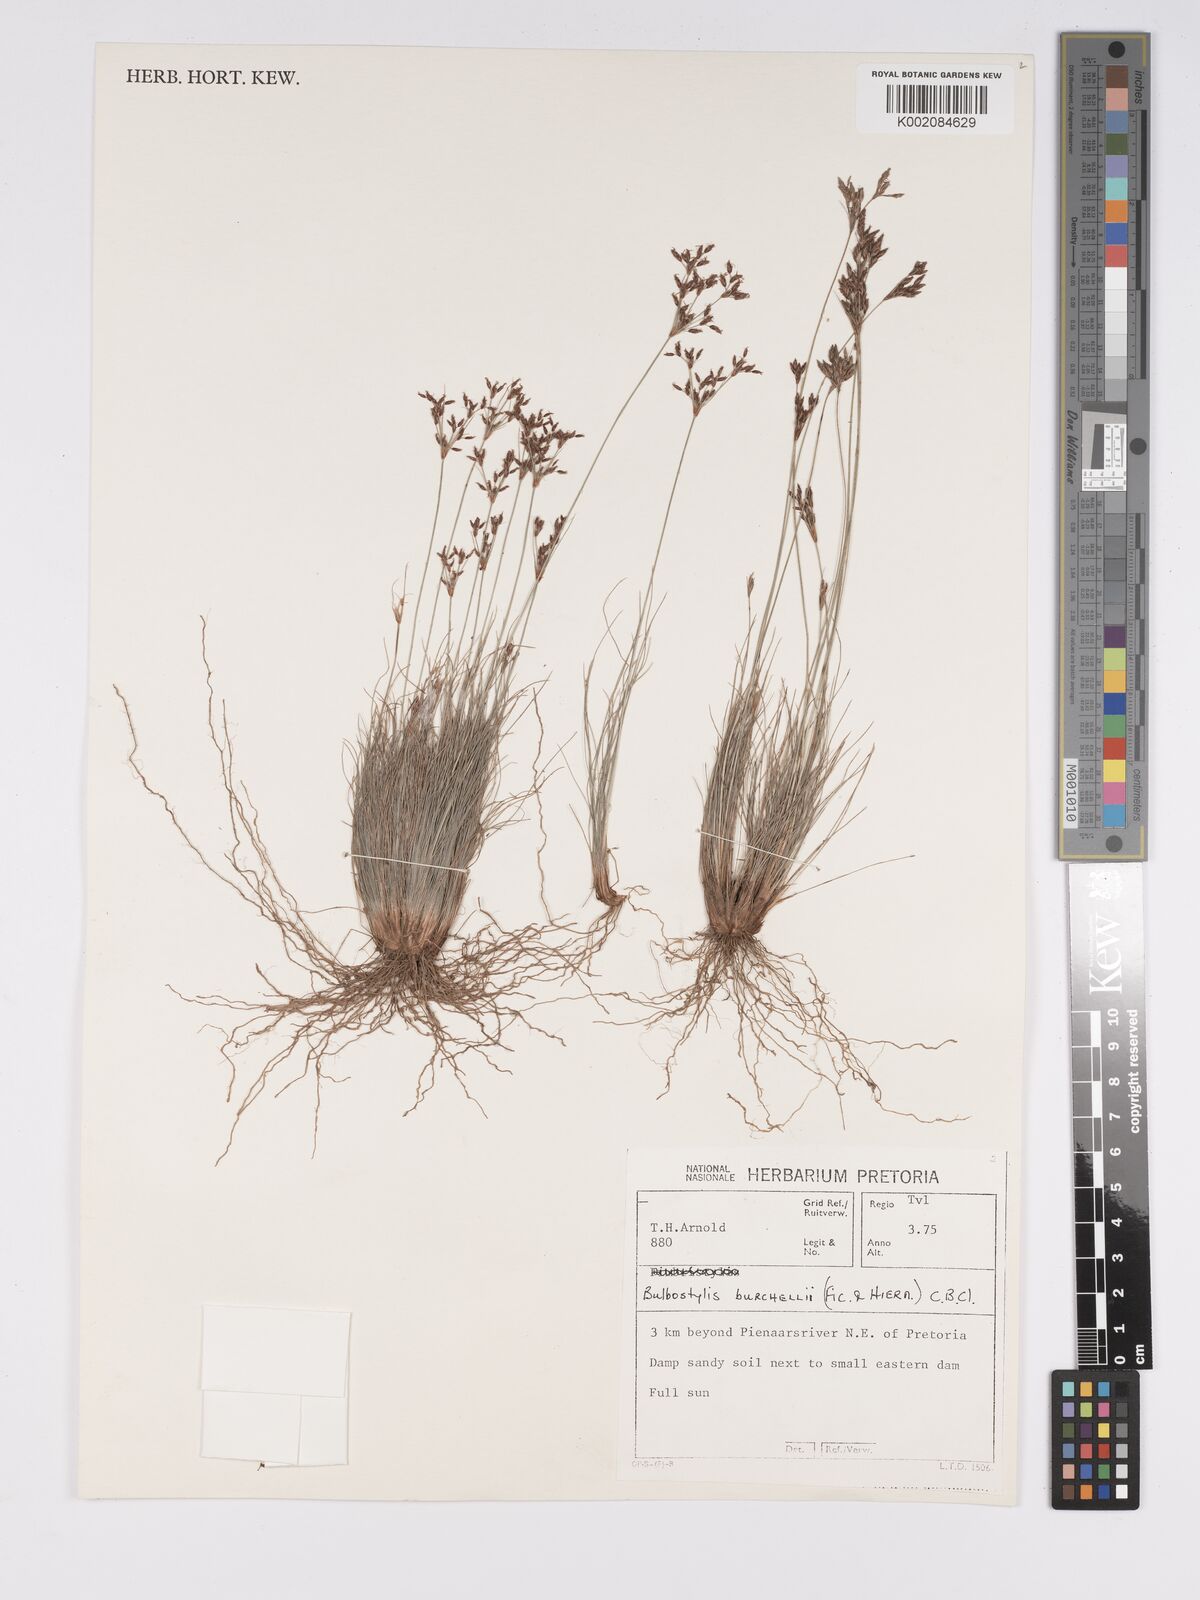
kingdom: Plantae
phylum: Tracheophyta
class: Liliopsida
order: Poales
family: Cyperaceae
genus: Bulbostylis
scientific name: Bulbostylis
